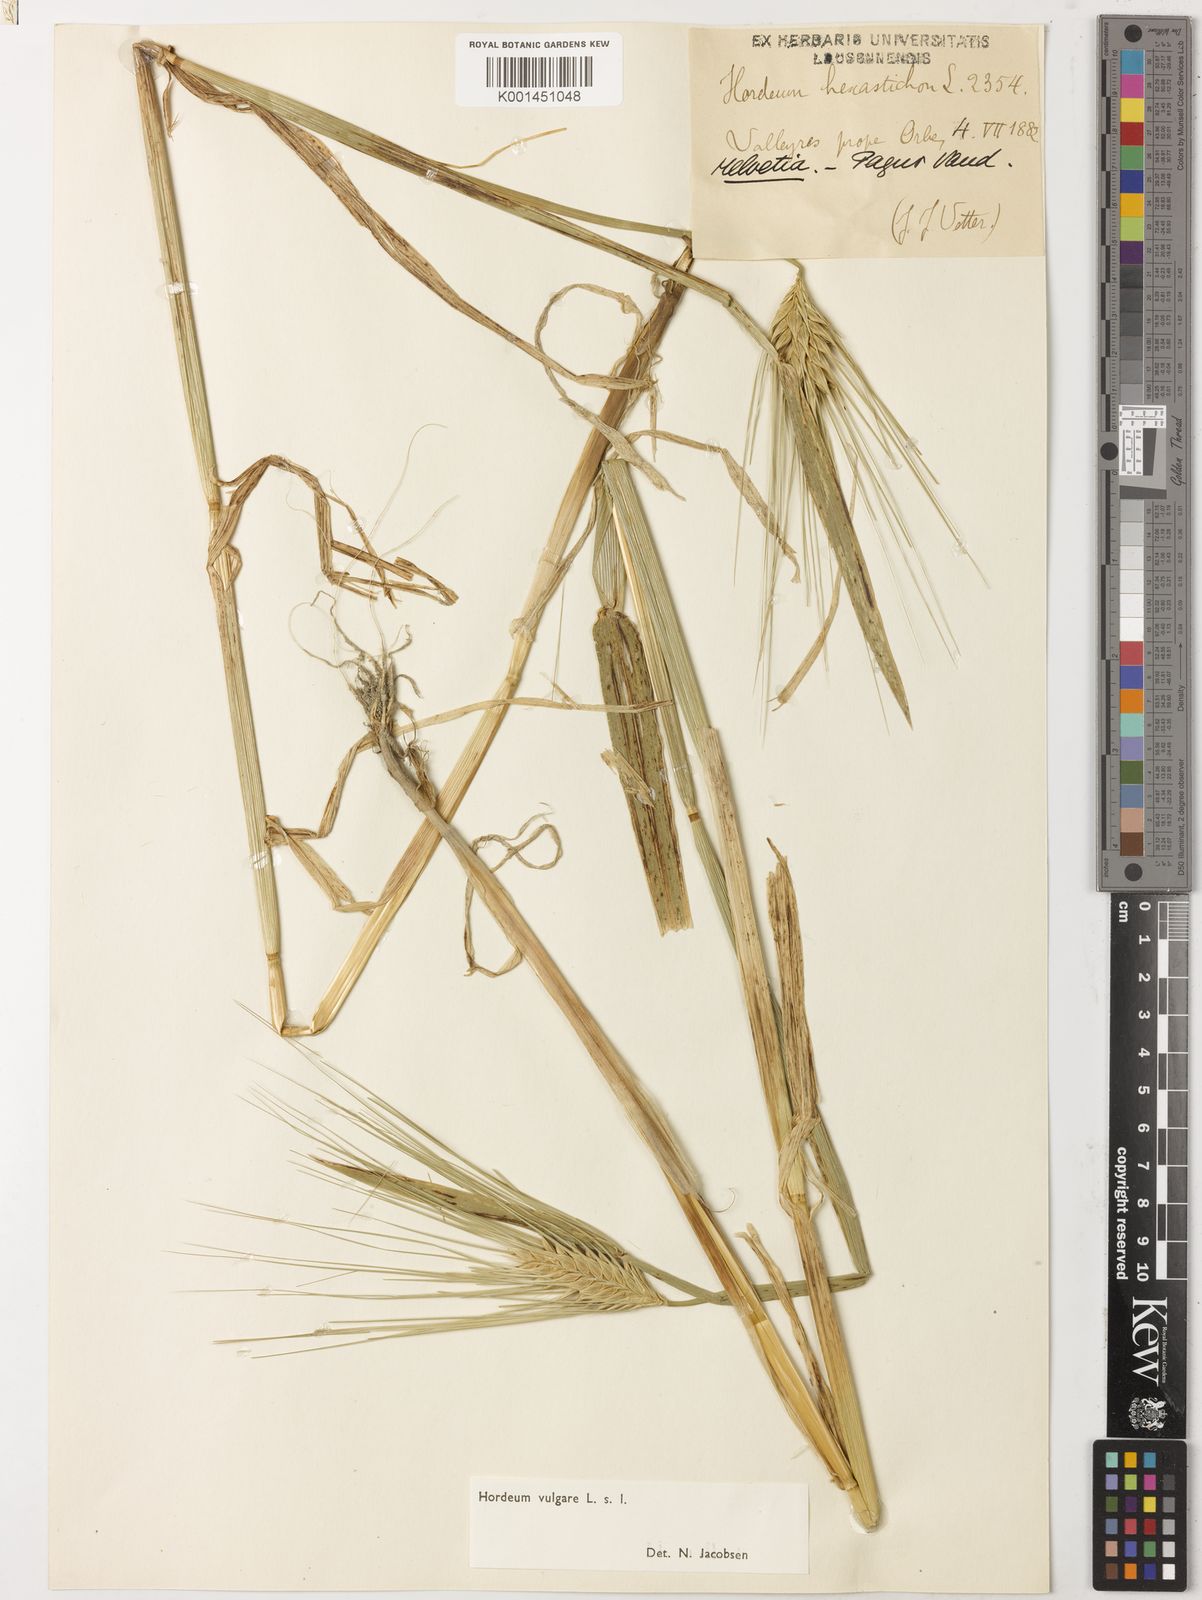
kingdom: Plantae
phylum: Tracheophyta
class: Liliopsida
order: Poales
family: Poaceae
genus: Hordeum
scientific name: Hordeum vulgare
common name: Common barley
